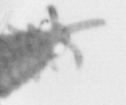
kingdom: Animalia
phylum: Annelida
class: Polychaeta
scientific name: Polychaeta
